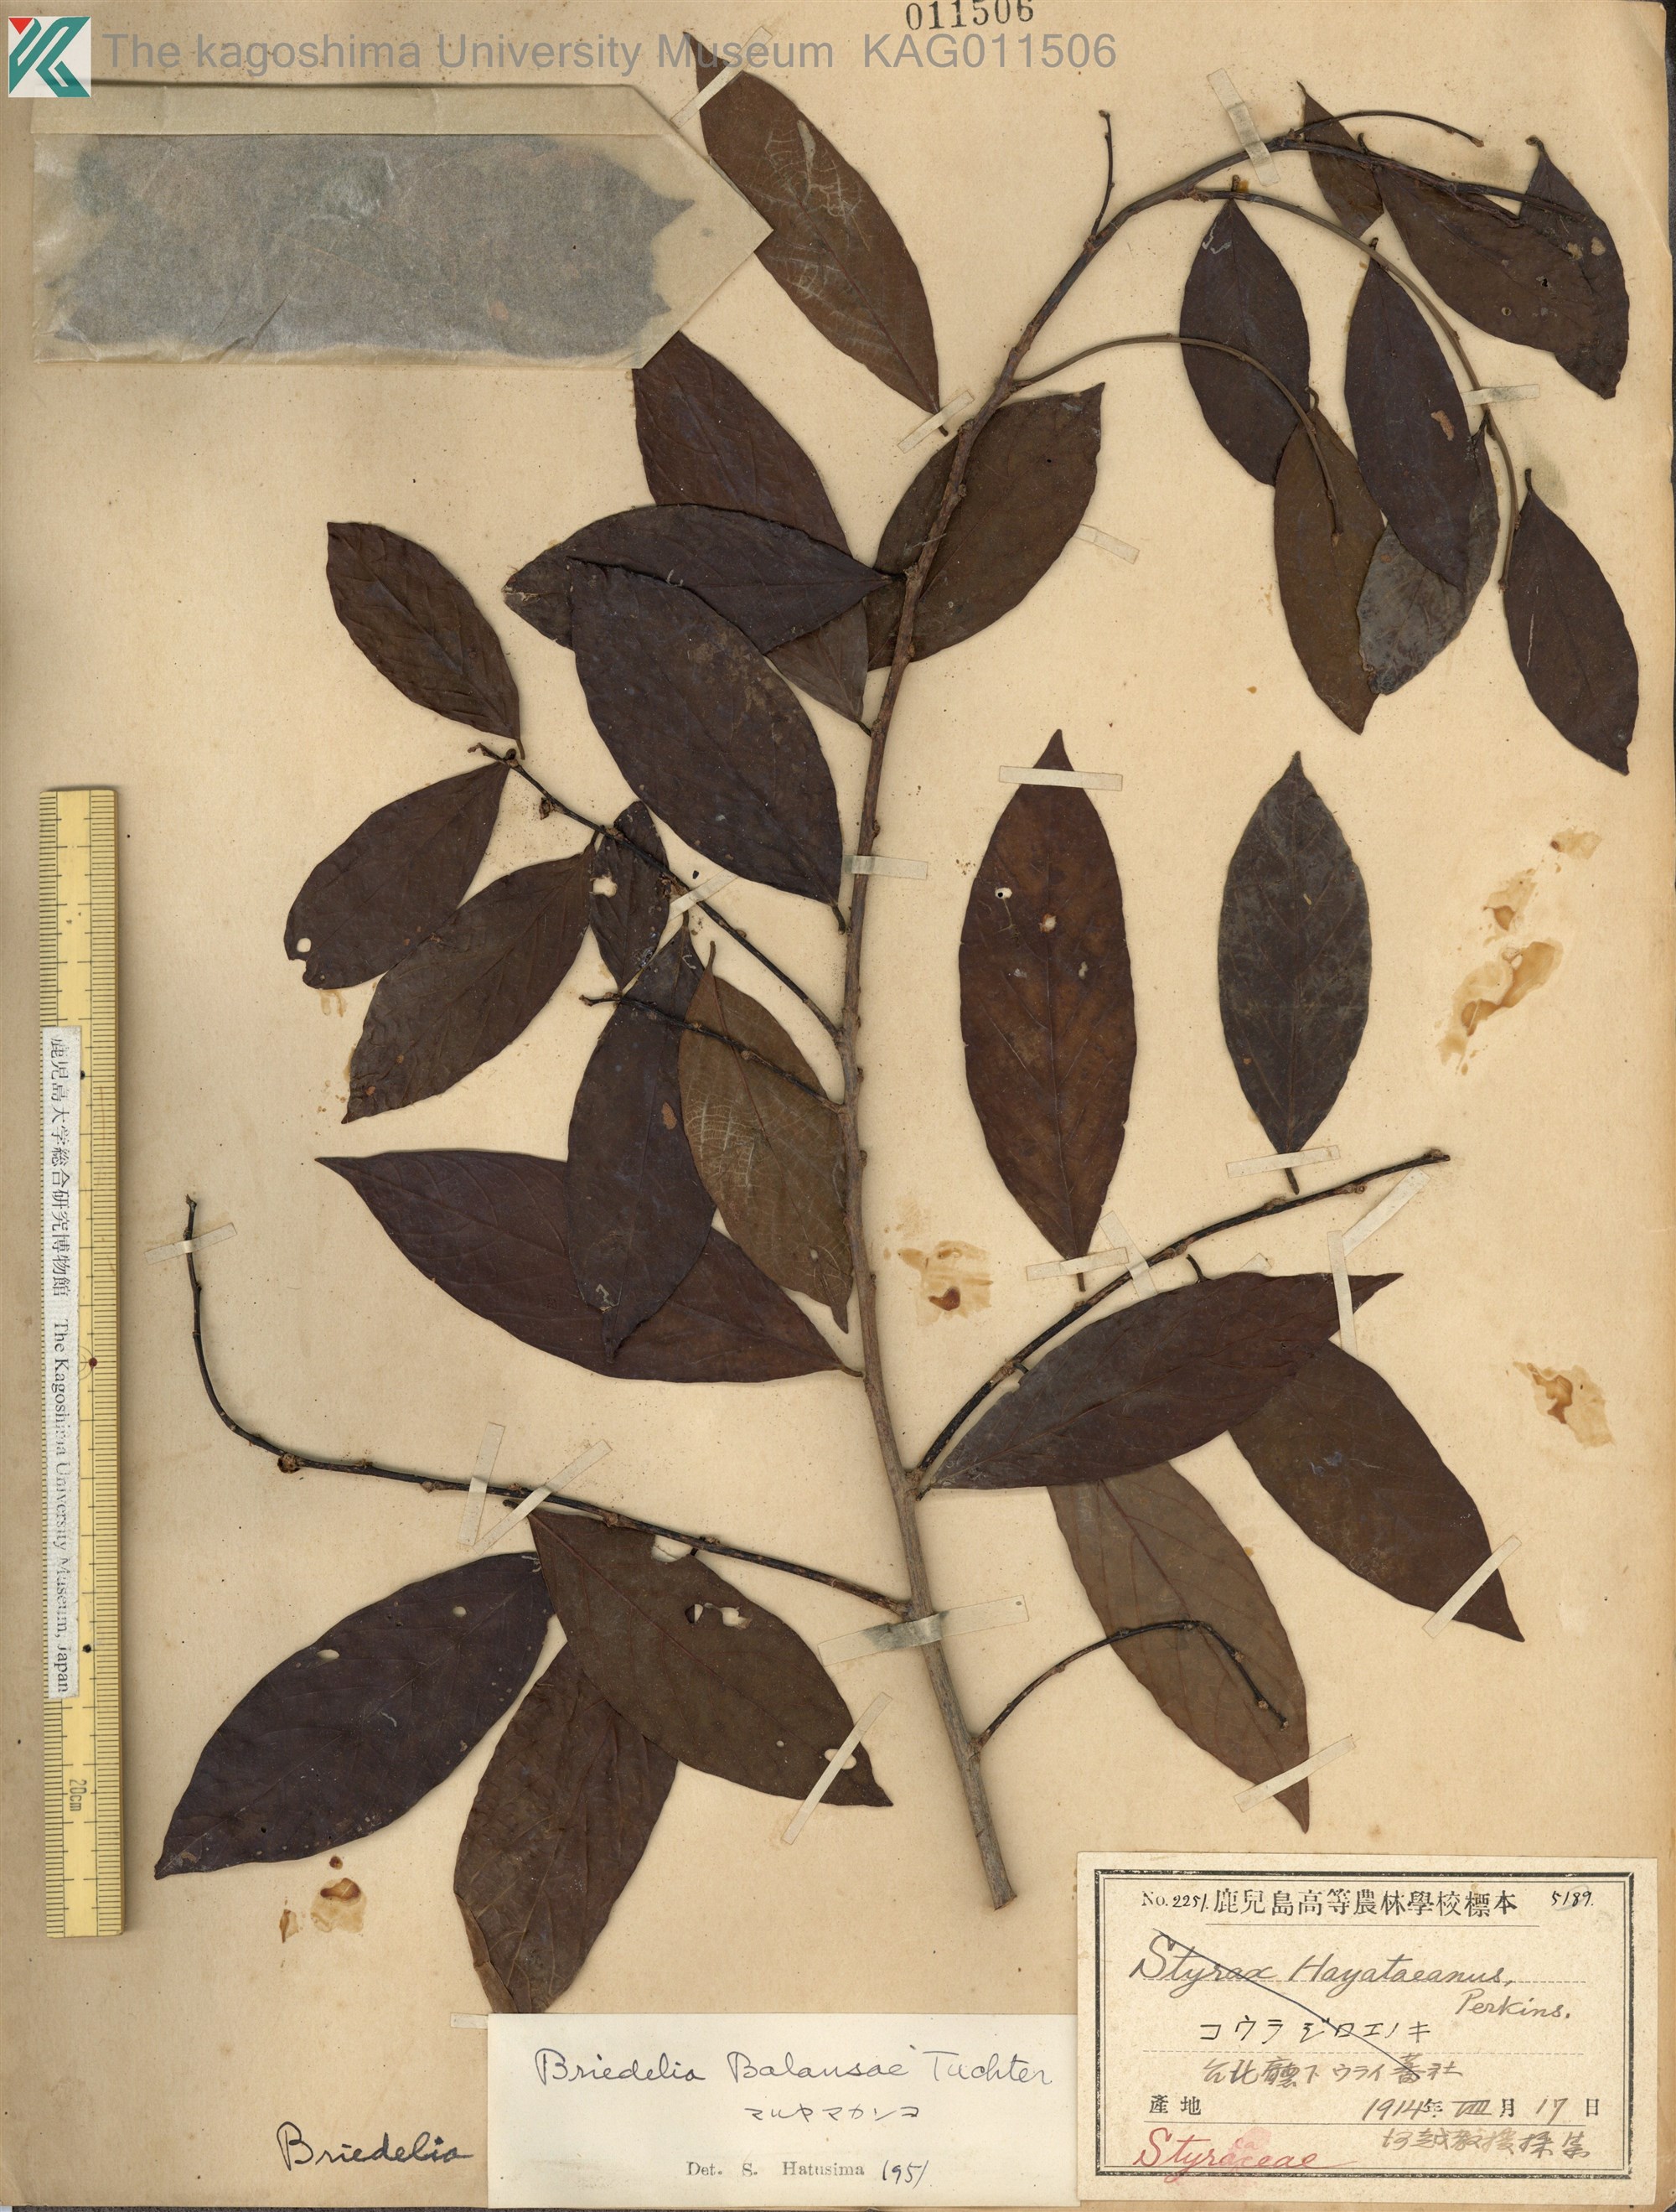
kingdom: Plantae
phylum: Tracheophyta
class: Magnoliopsida
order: Malpighiales
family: Phyllanthaceae
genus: Bridelia
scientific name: Bridelia balansae
